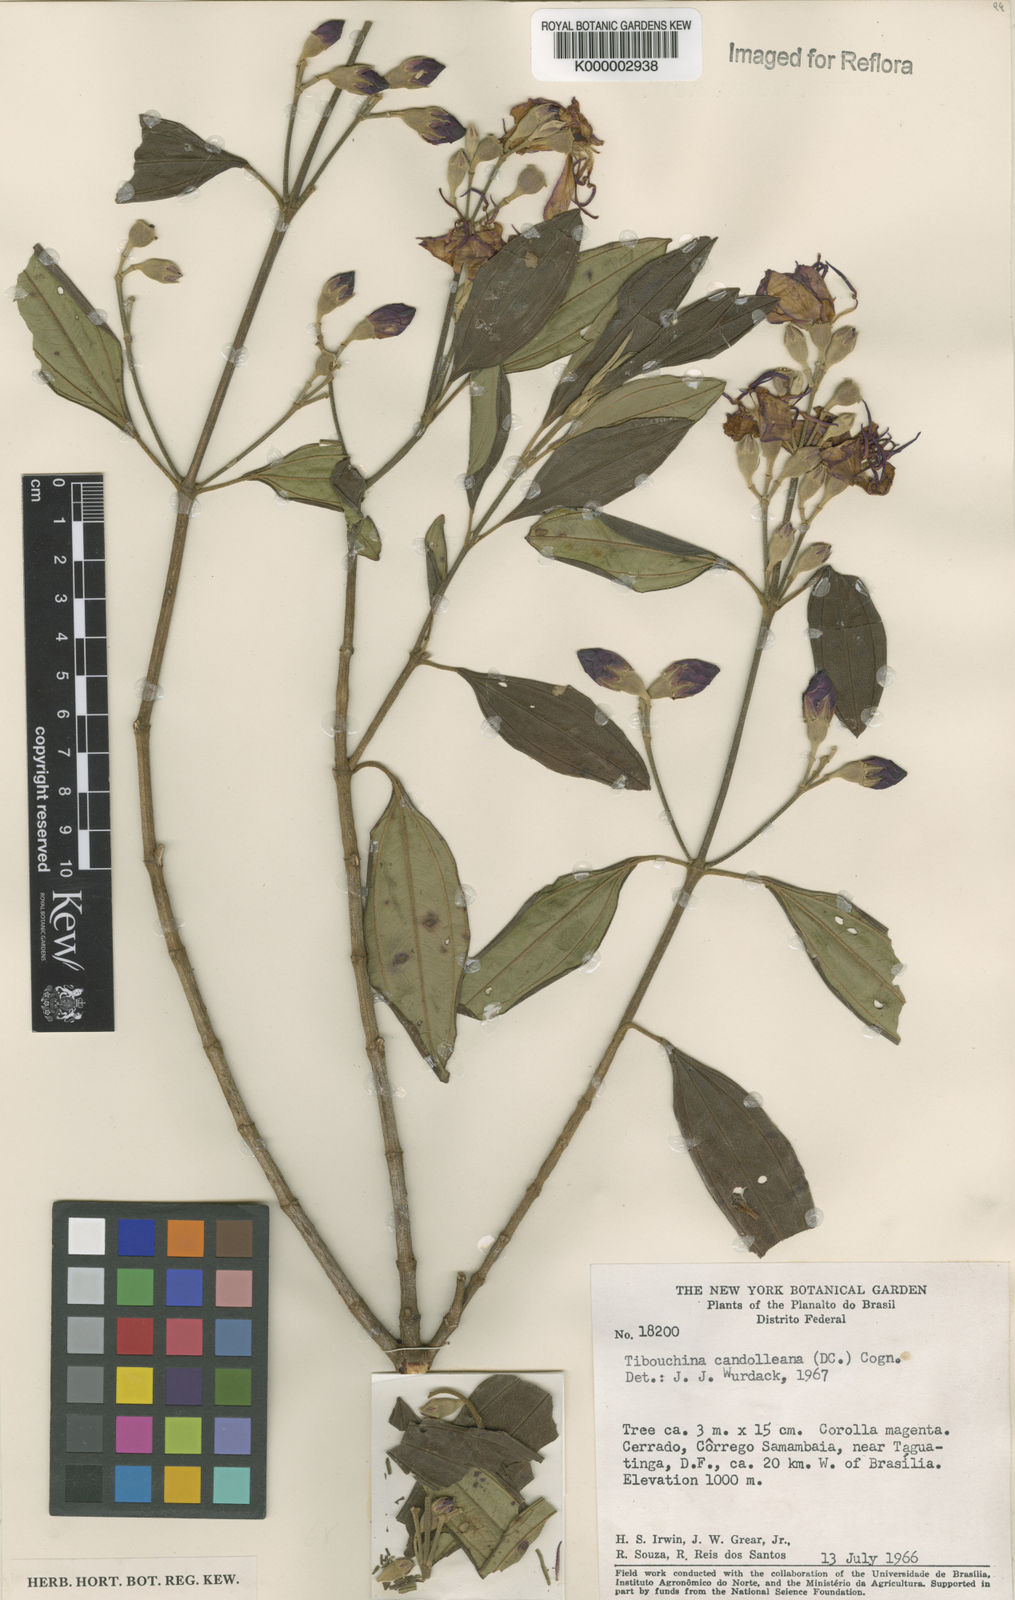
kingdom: Plantae
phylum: Tracheophyta
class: Magnoliopsida
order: Myrtales
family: Melastomataceae
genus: Pleroma
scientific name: Pleroma candolleanum
